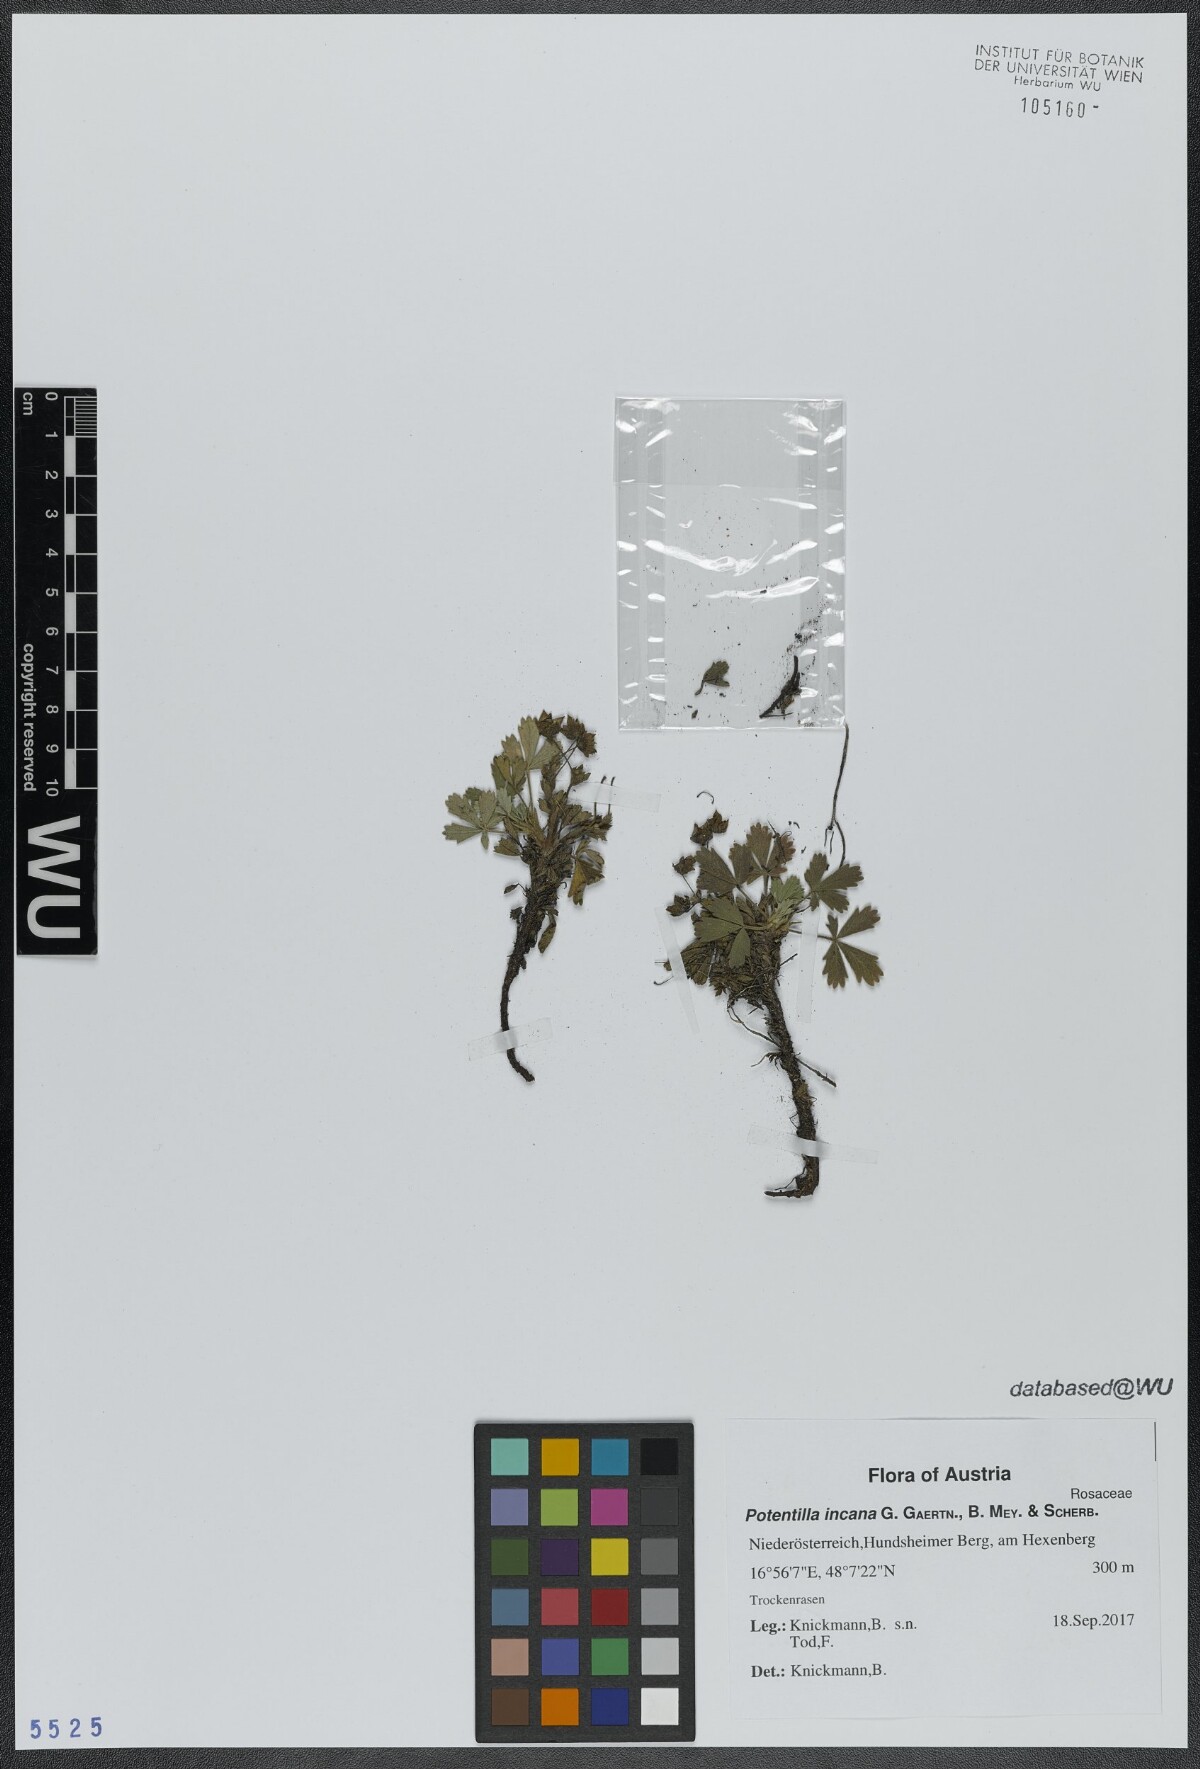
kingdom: Plantae
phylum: Tracheophyta
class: Magnoliopsida
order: Rosales
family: Rosaceae
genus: Potentilla
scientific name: Potentilla cinerea
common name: Ashy cinquefoil
